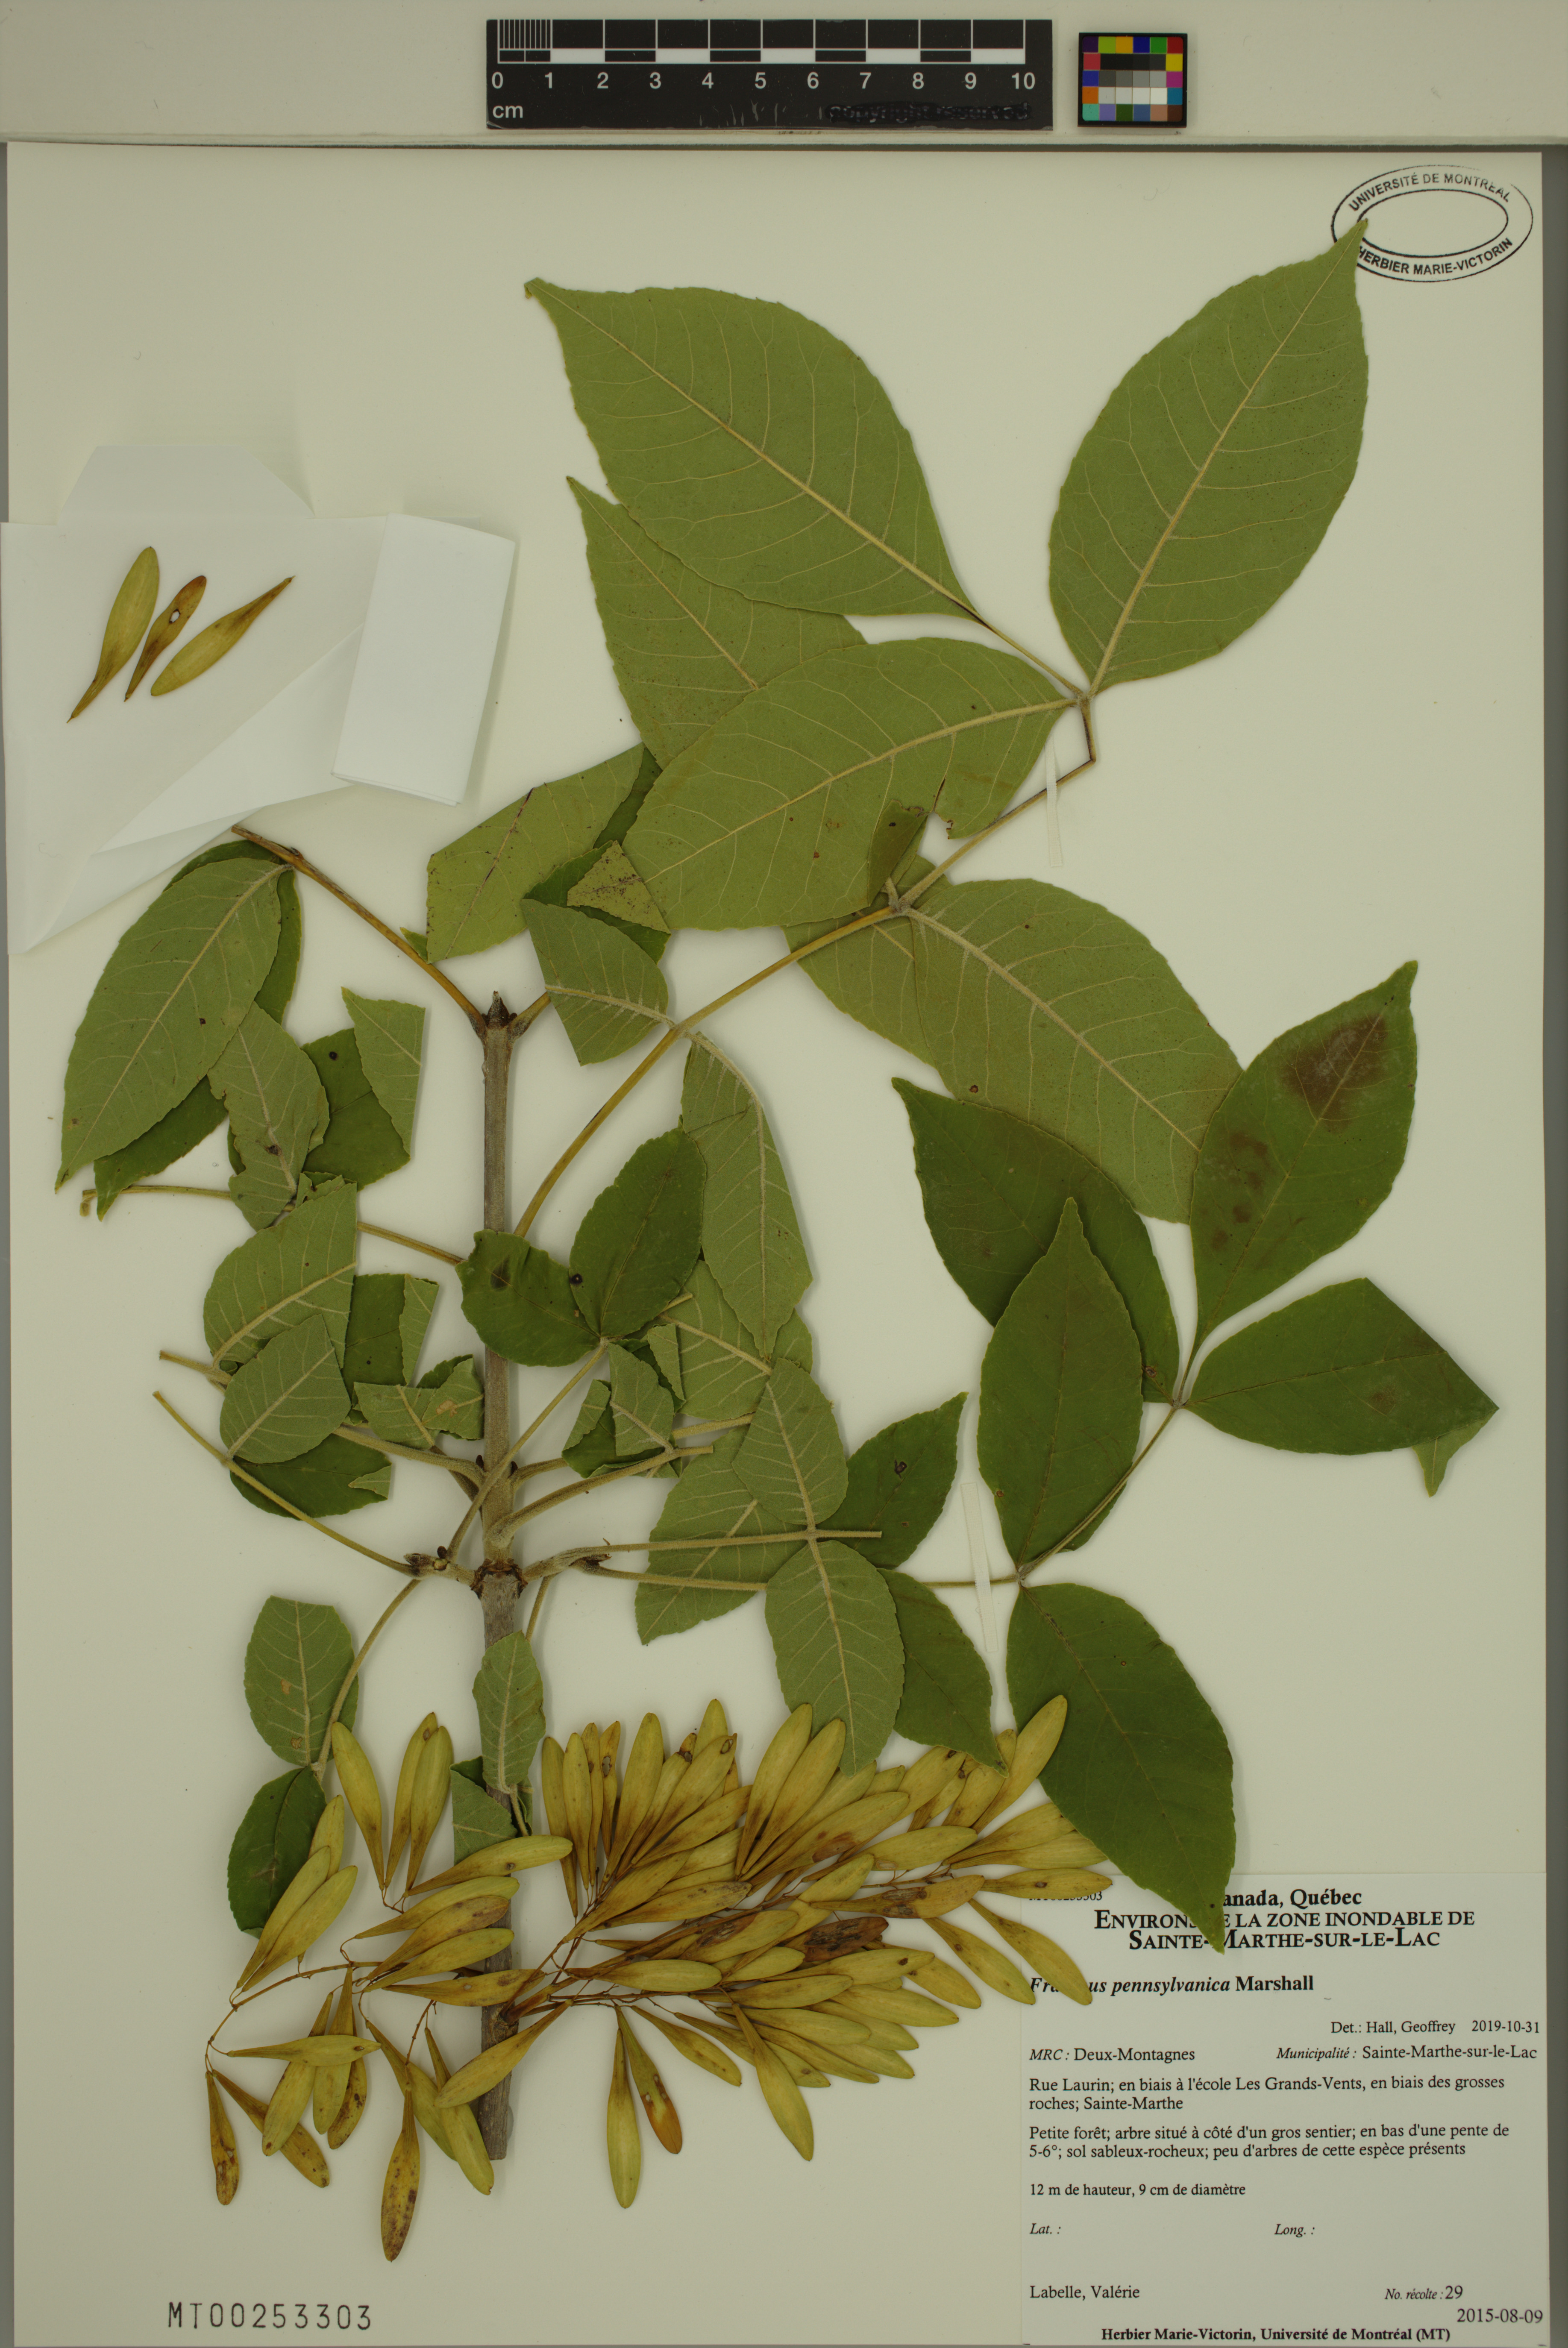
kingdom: Plantae
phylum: Tracheophyta
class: Magnoliopsida
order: Lamiales
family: Oleaceae
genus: Fraxinus
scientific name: Fraxinus pennsylvanica
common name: Green ash
